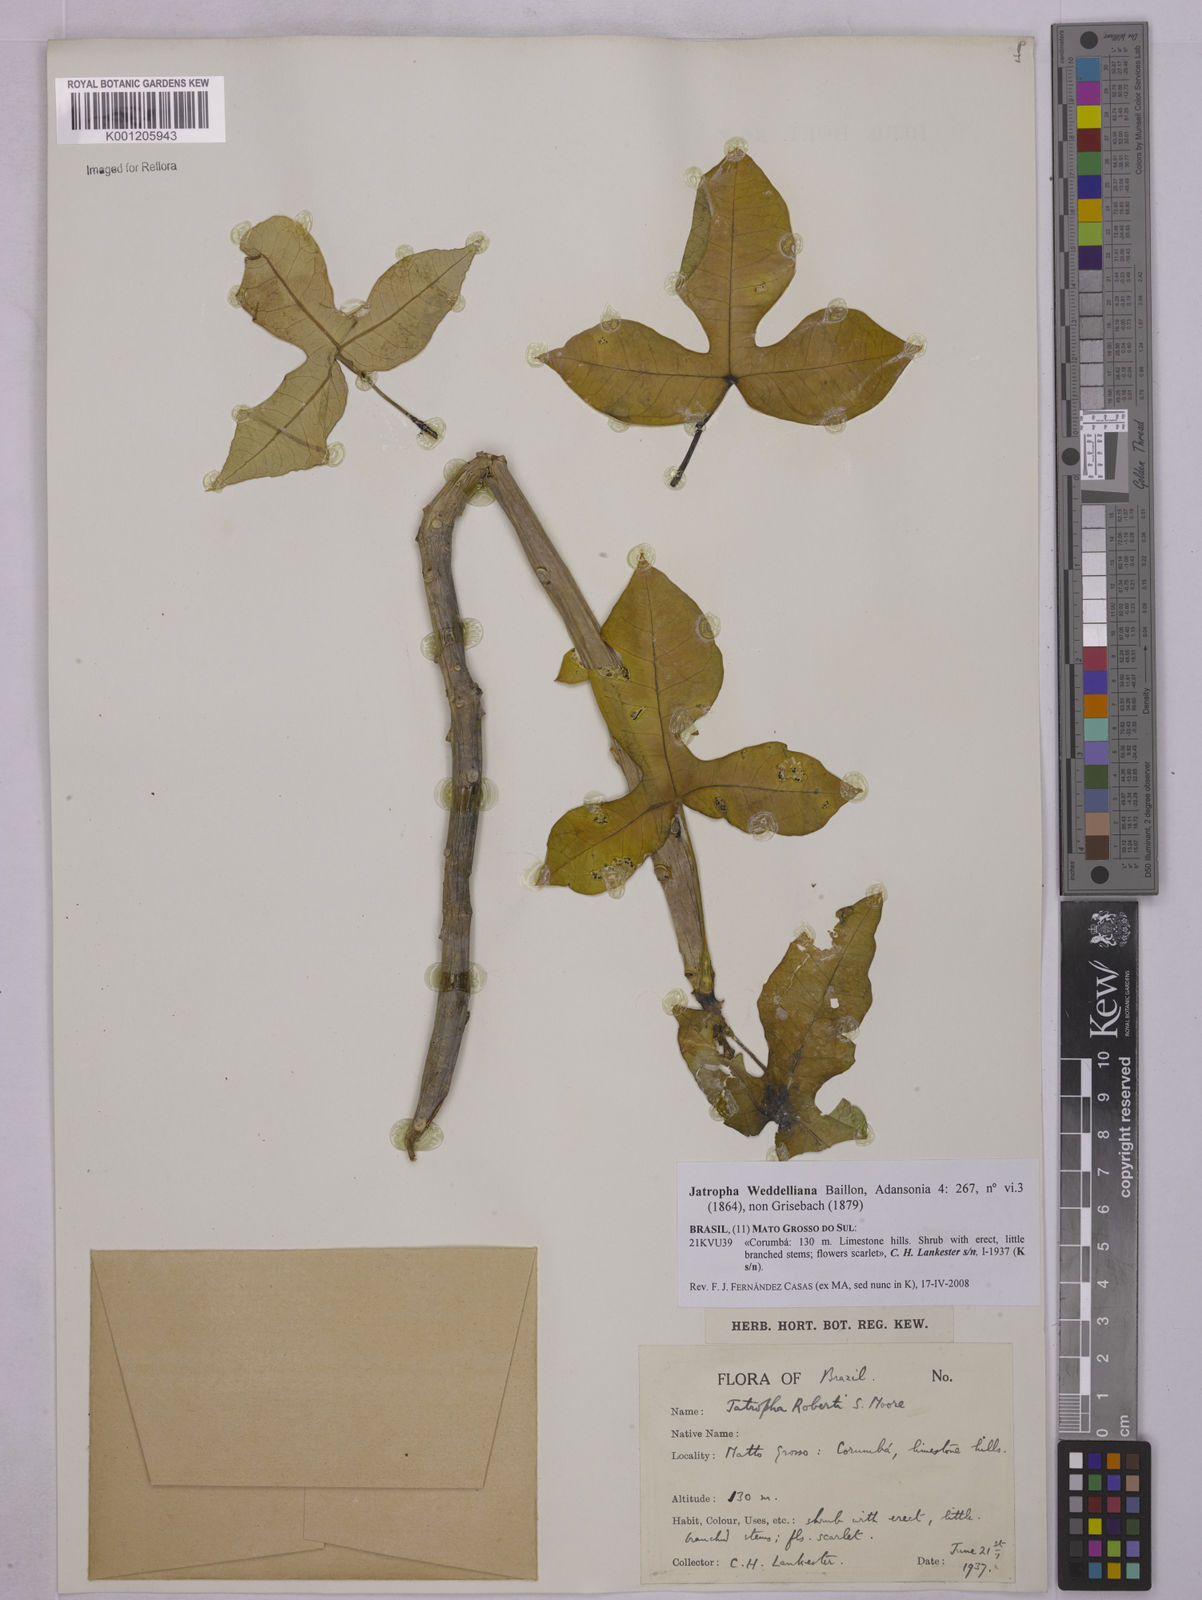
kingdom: Plantae
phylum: Tracheophyta
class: Magnoliopsida
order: Malpighiales
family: Euphorbiaceae
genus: Jatropha
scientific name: Jatropha weddeliana
